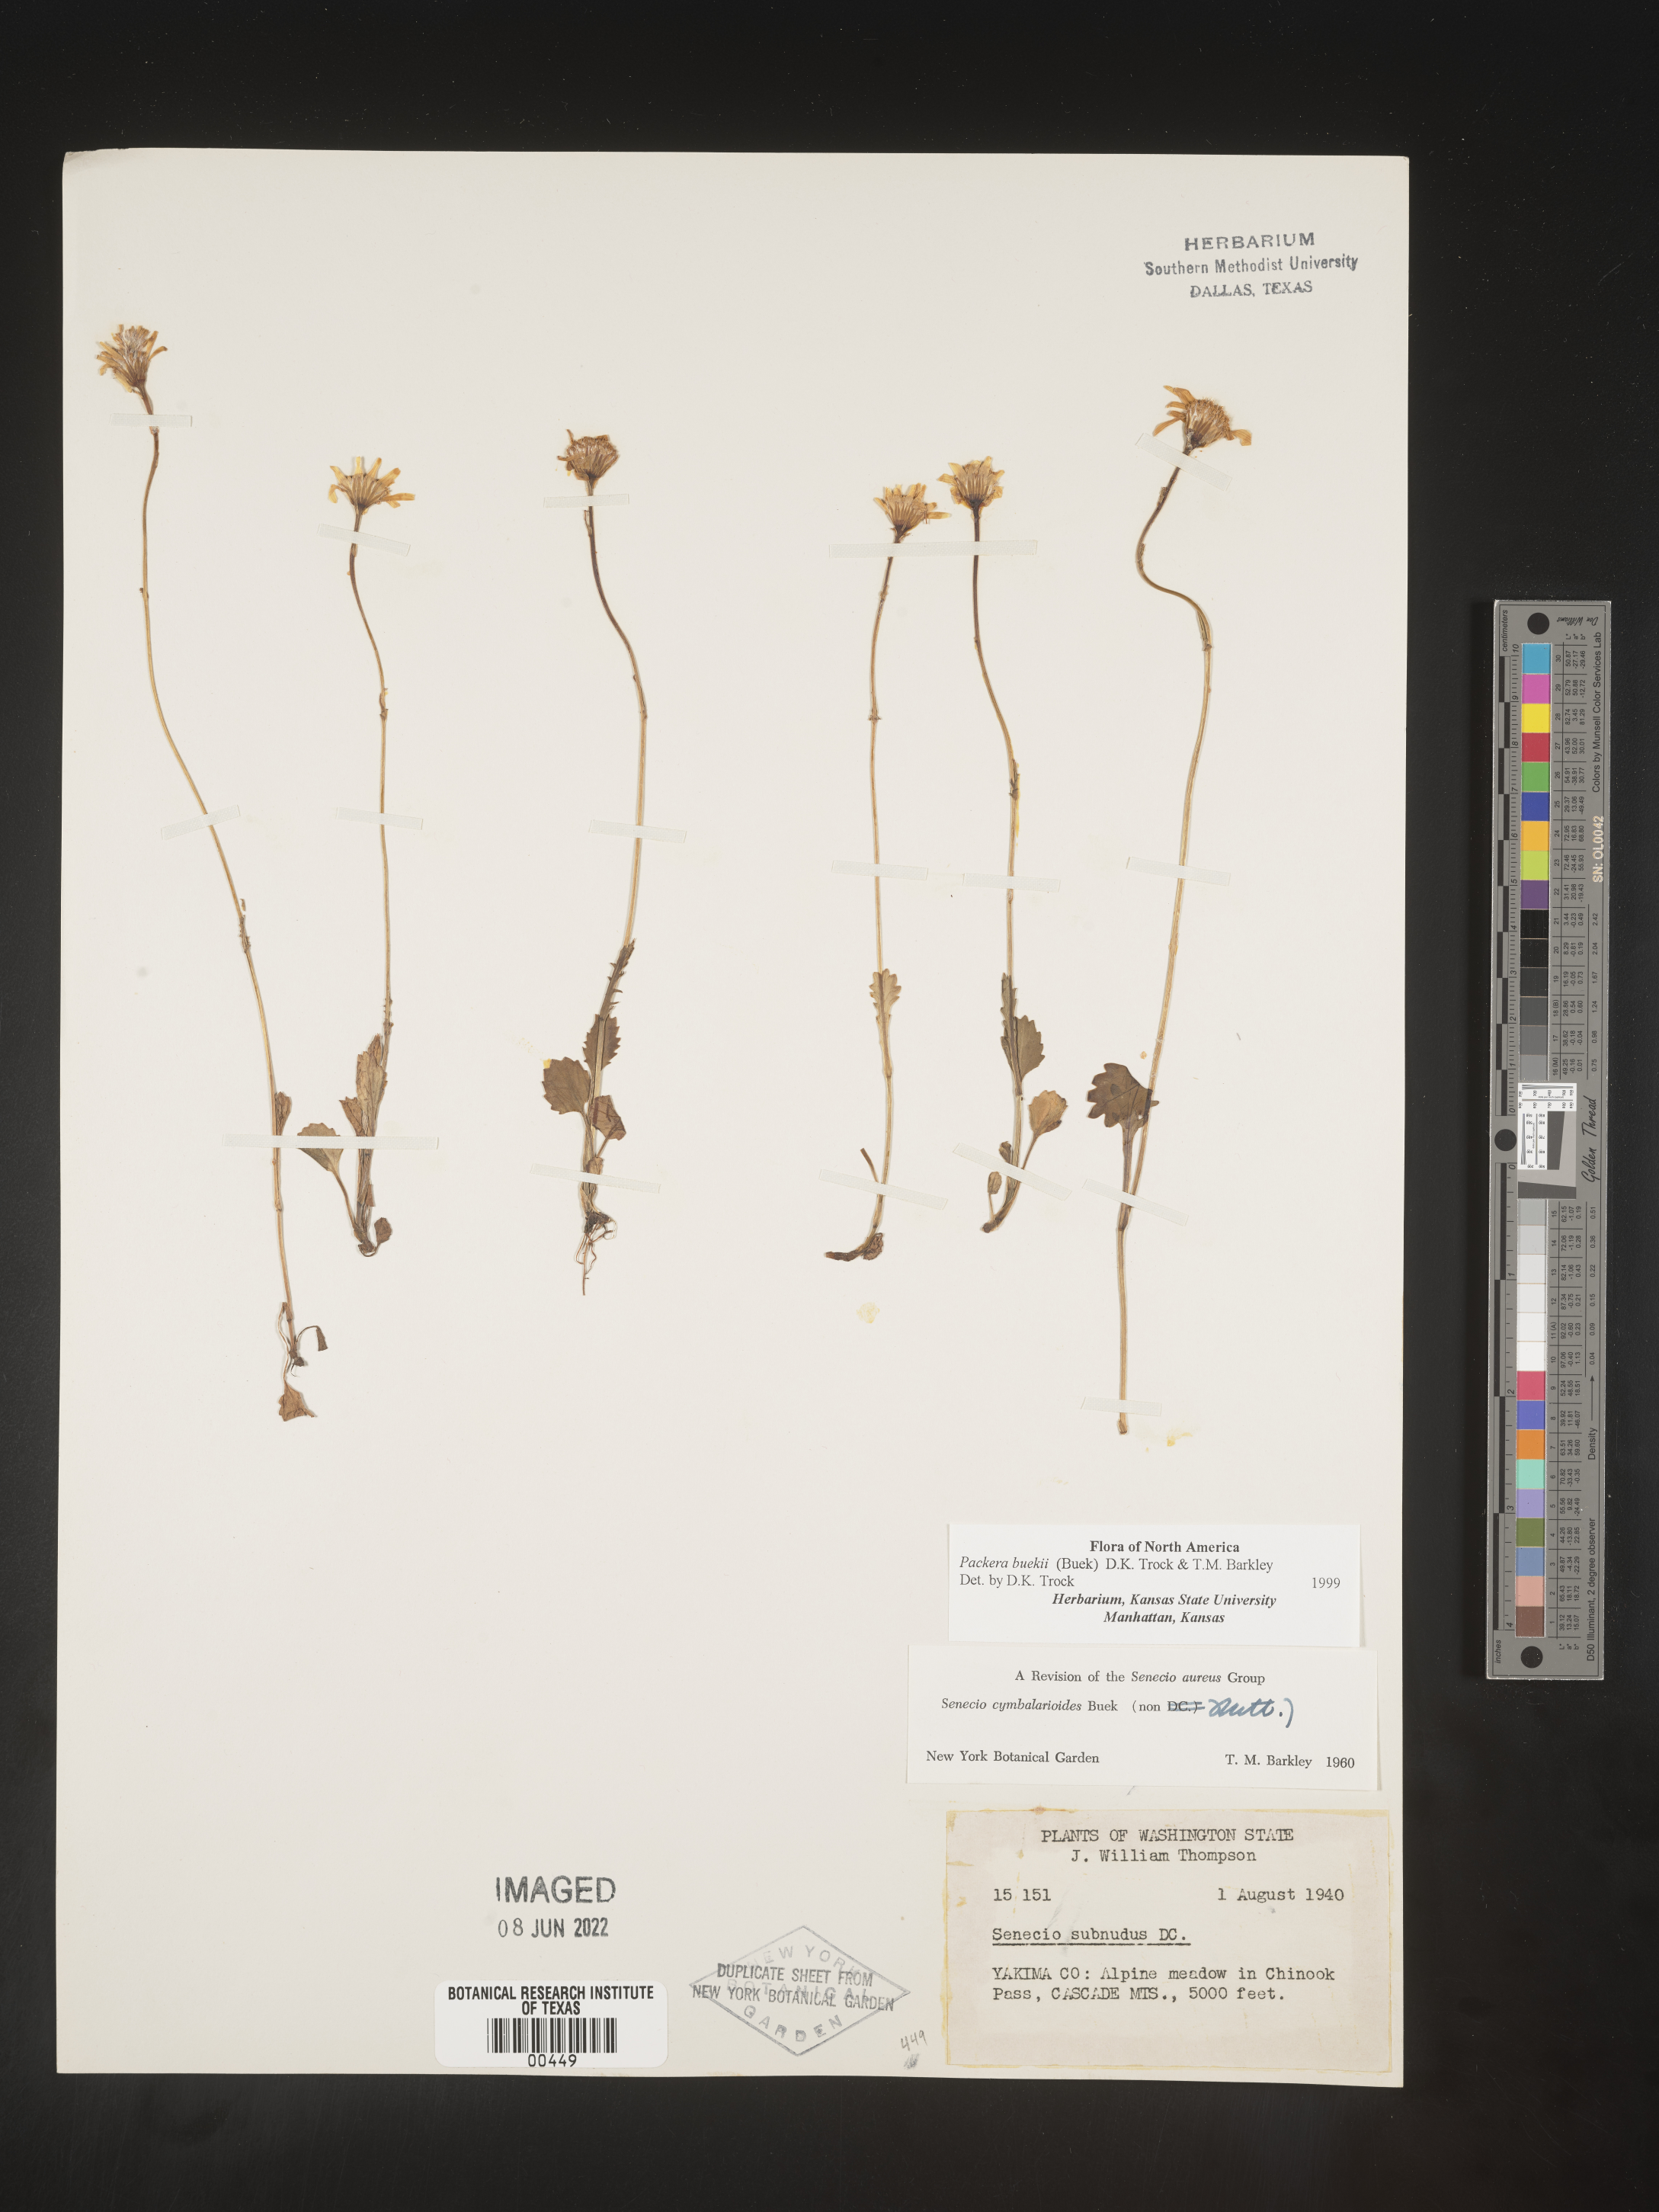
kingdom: Plantae
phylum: Tracheophyta
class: Magnoliopsida
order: Asterales
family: Asteraceae
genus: Packera
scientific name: Packera subnuda
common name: Buek's groundsel
